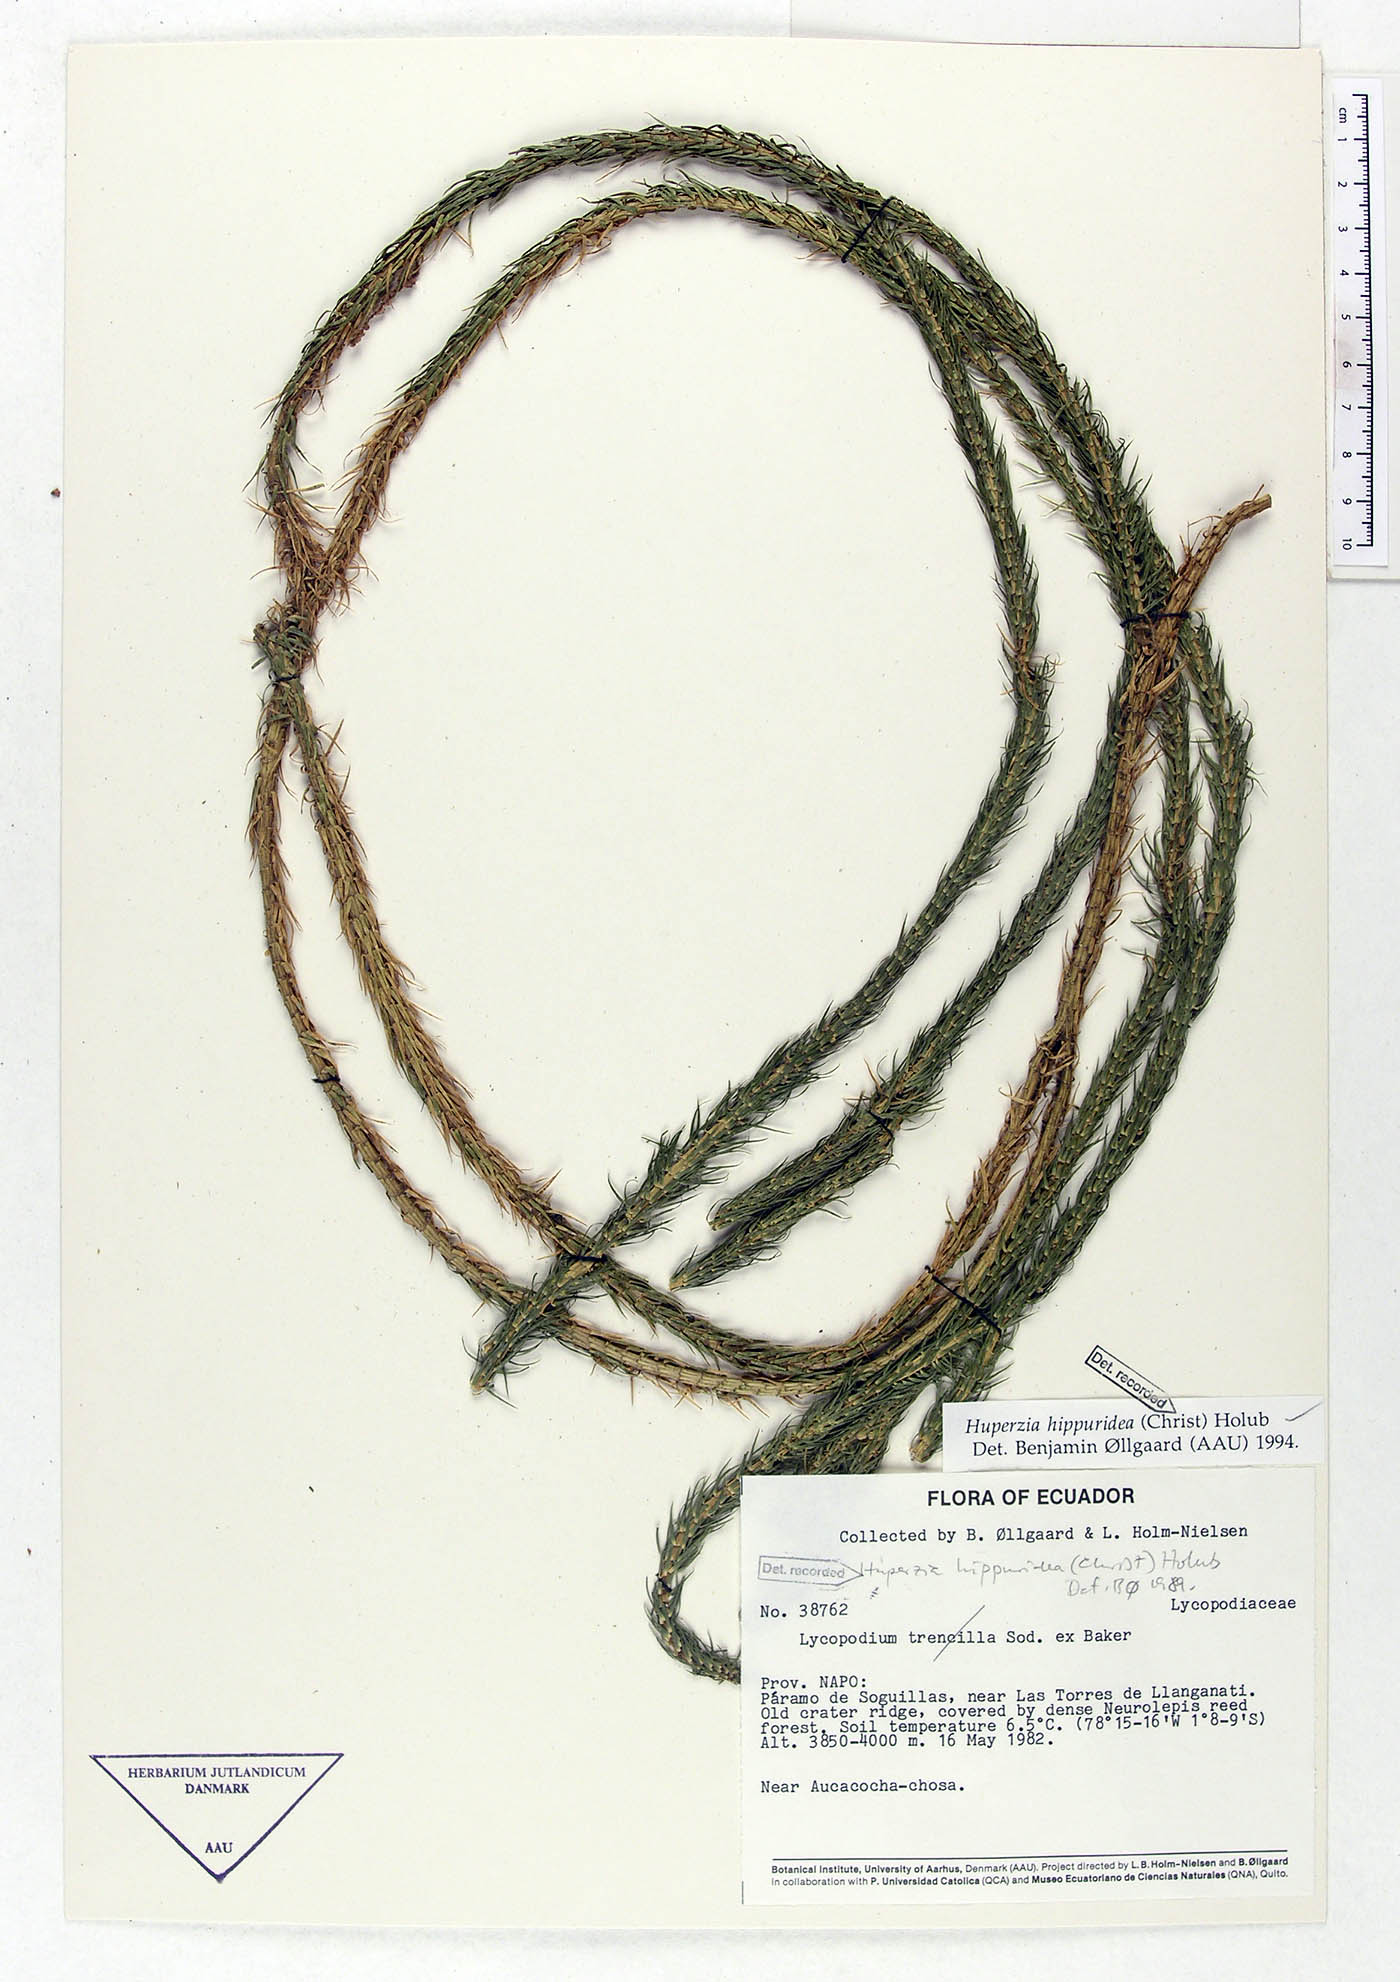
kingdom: Plantae
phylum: Tracheophyta
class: Lycopodiopsida
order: Lycopodiales
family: Lycopodiaceae
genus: Phlegmariurus
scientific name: Phlegmariurus hippurideus
